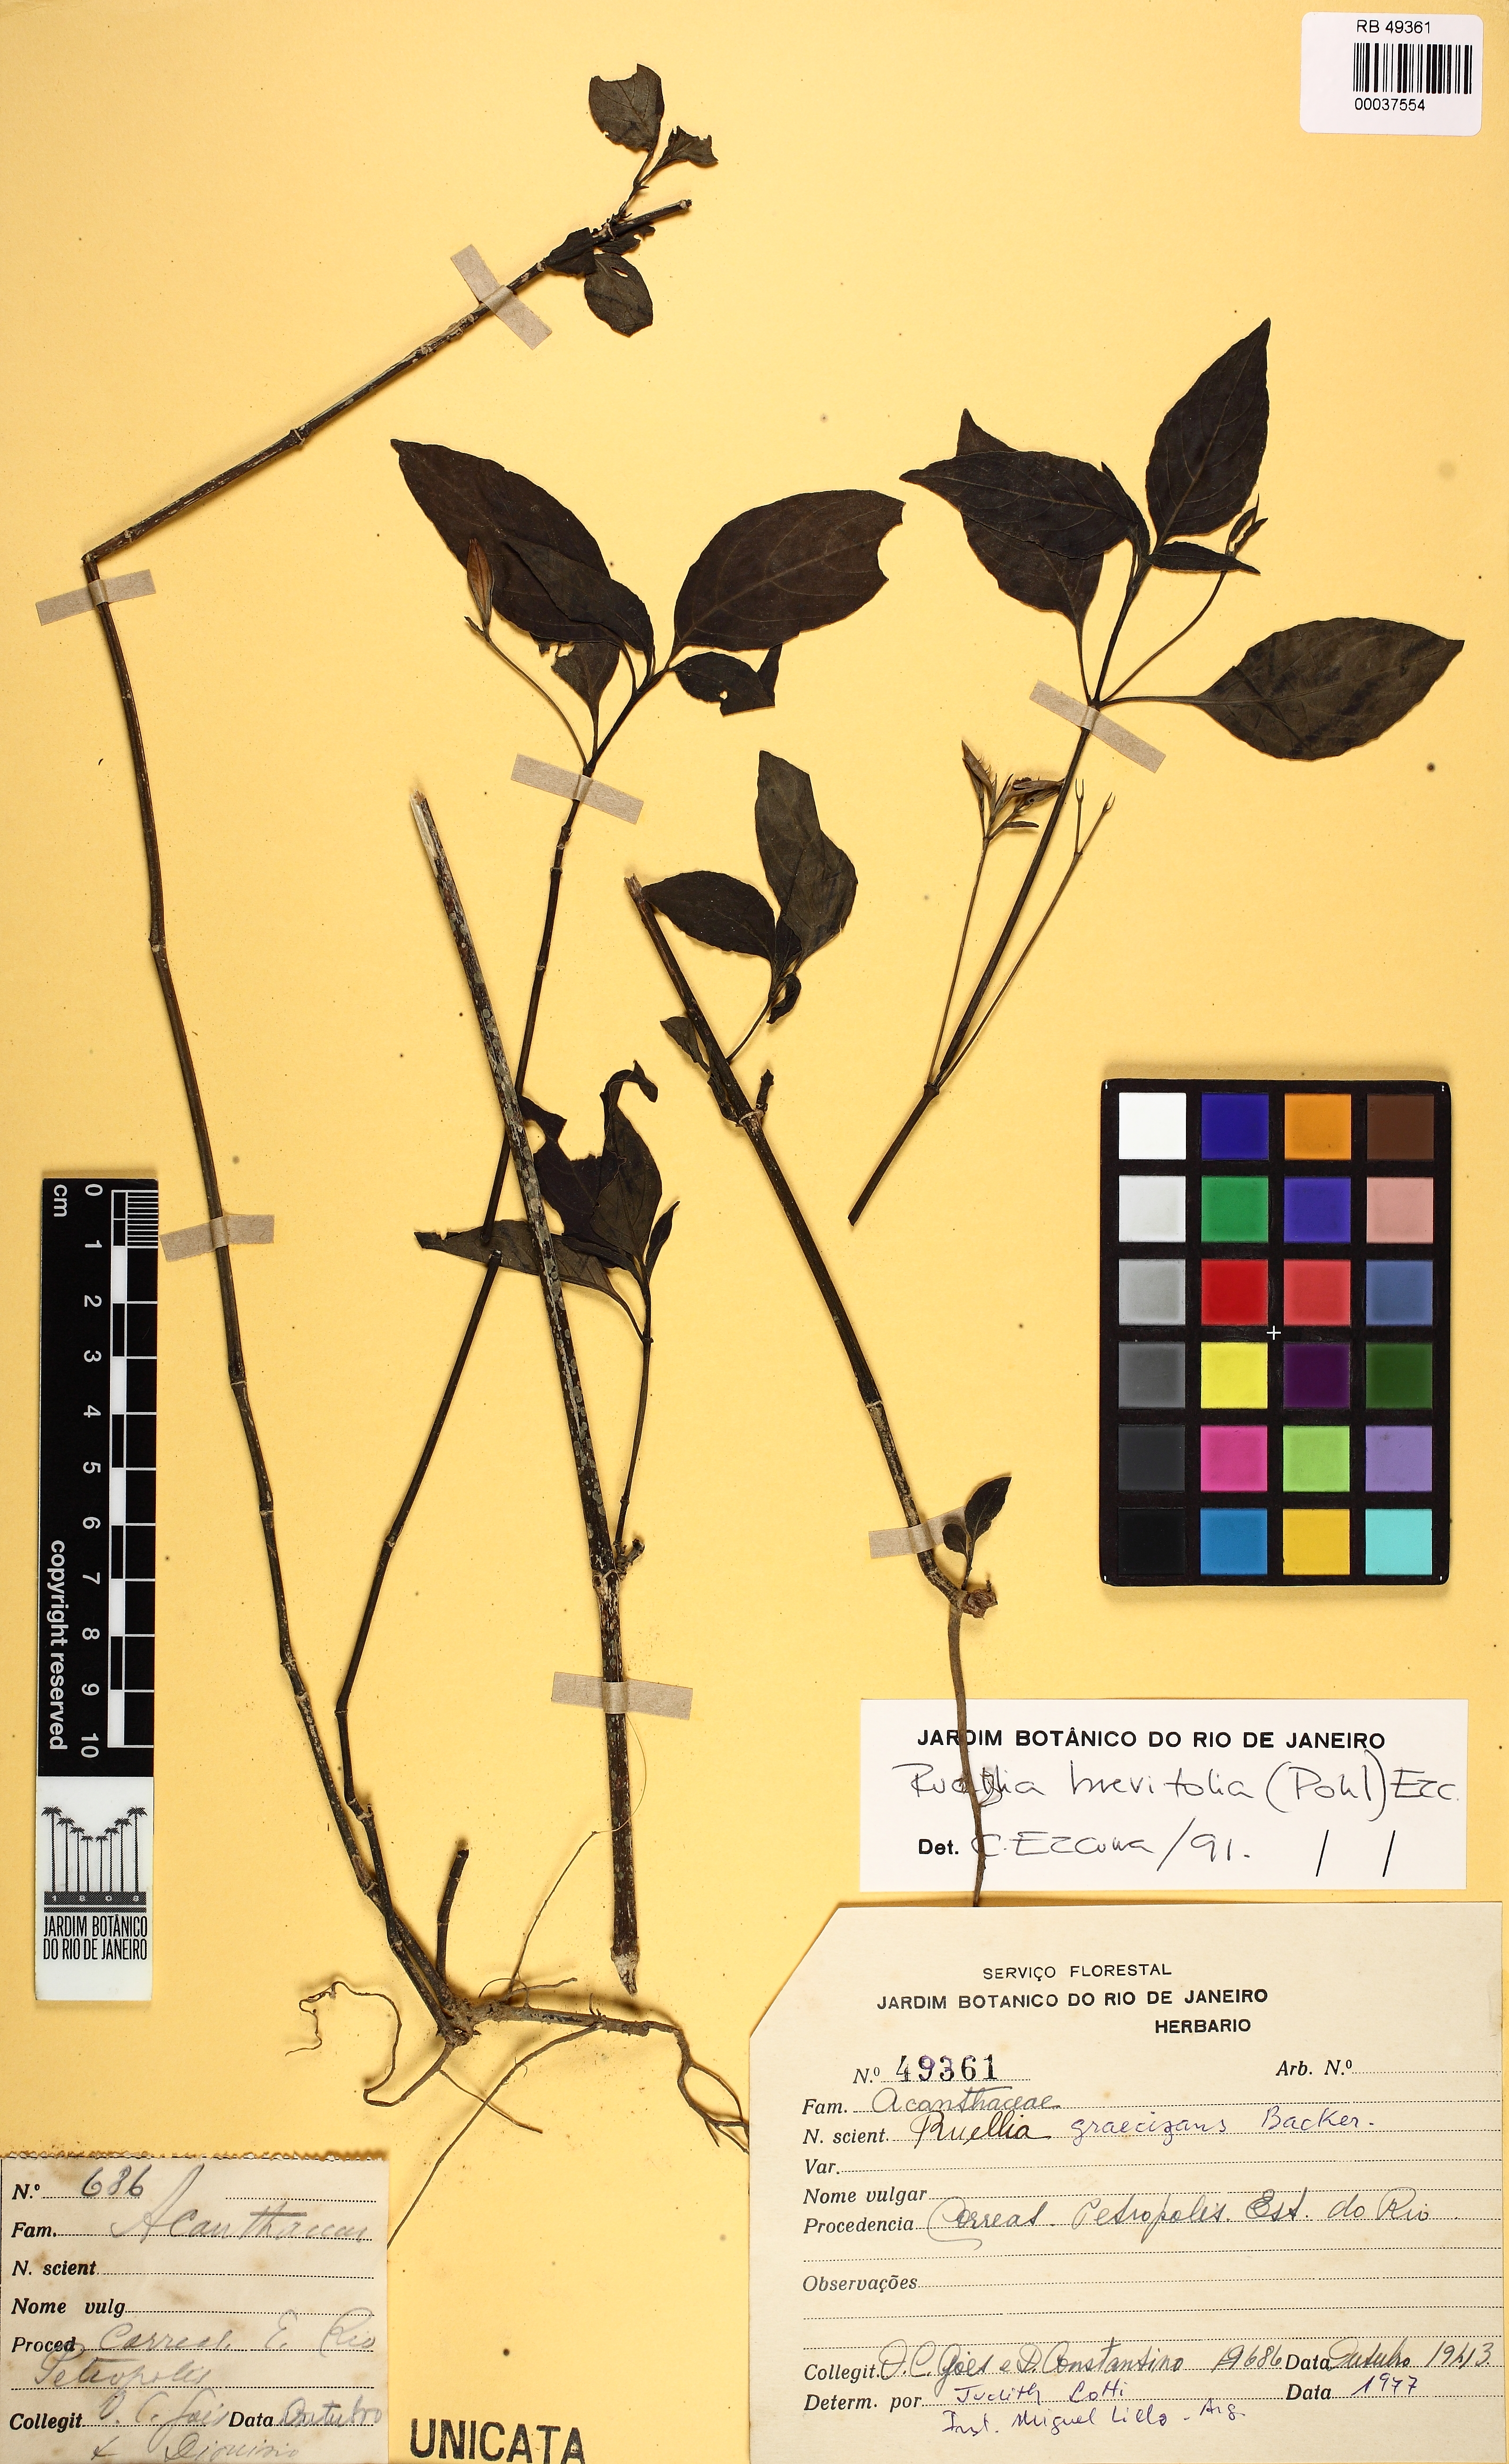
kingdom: Plantae
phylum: Tracheophyta
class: Magnoliopsida
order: Lamiales
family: Acanthaceae
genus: Ruellia
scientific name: Ruellia brevifolia
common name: Tropical wild petunia
